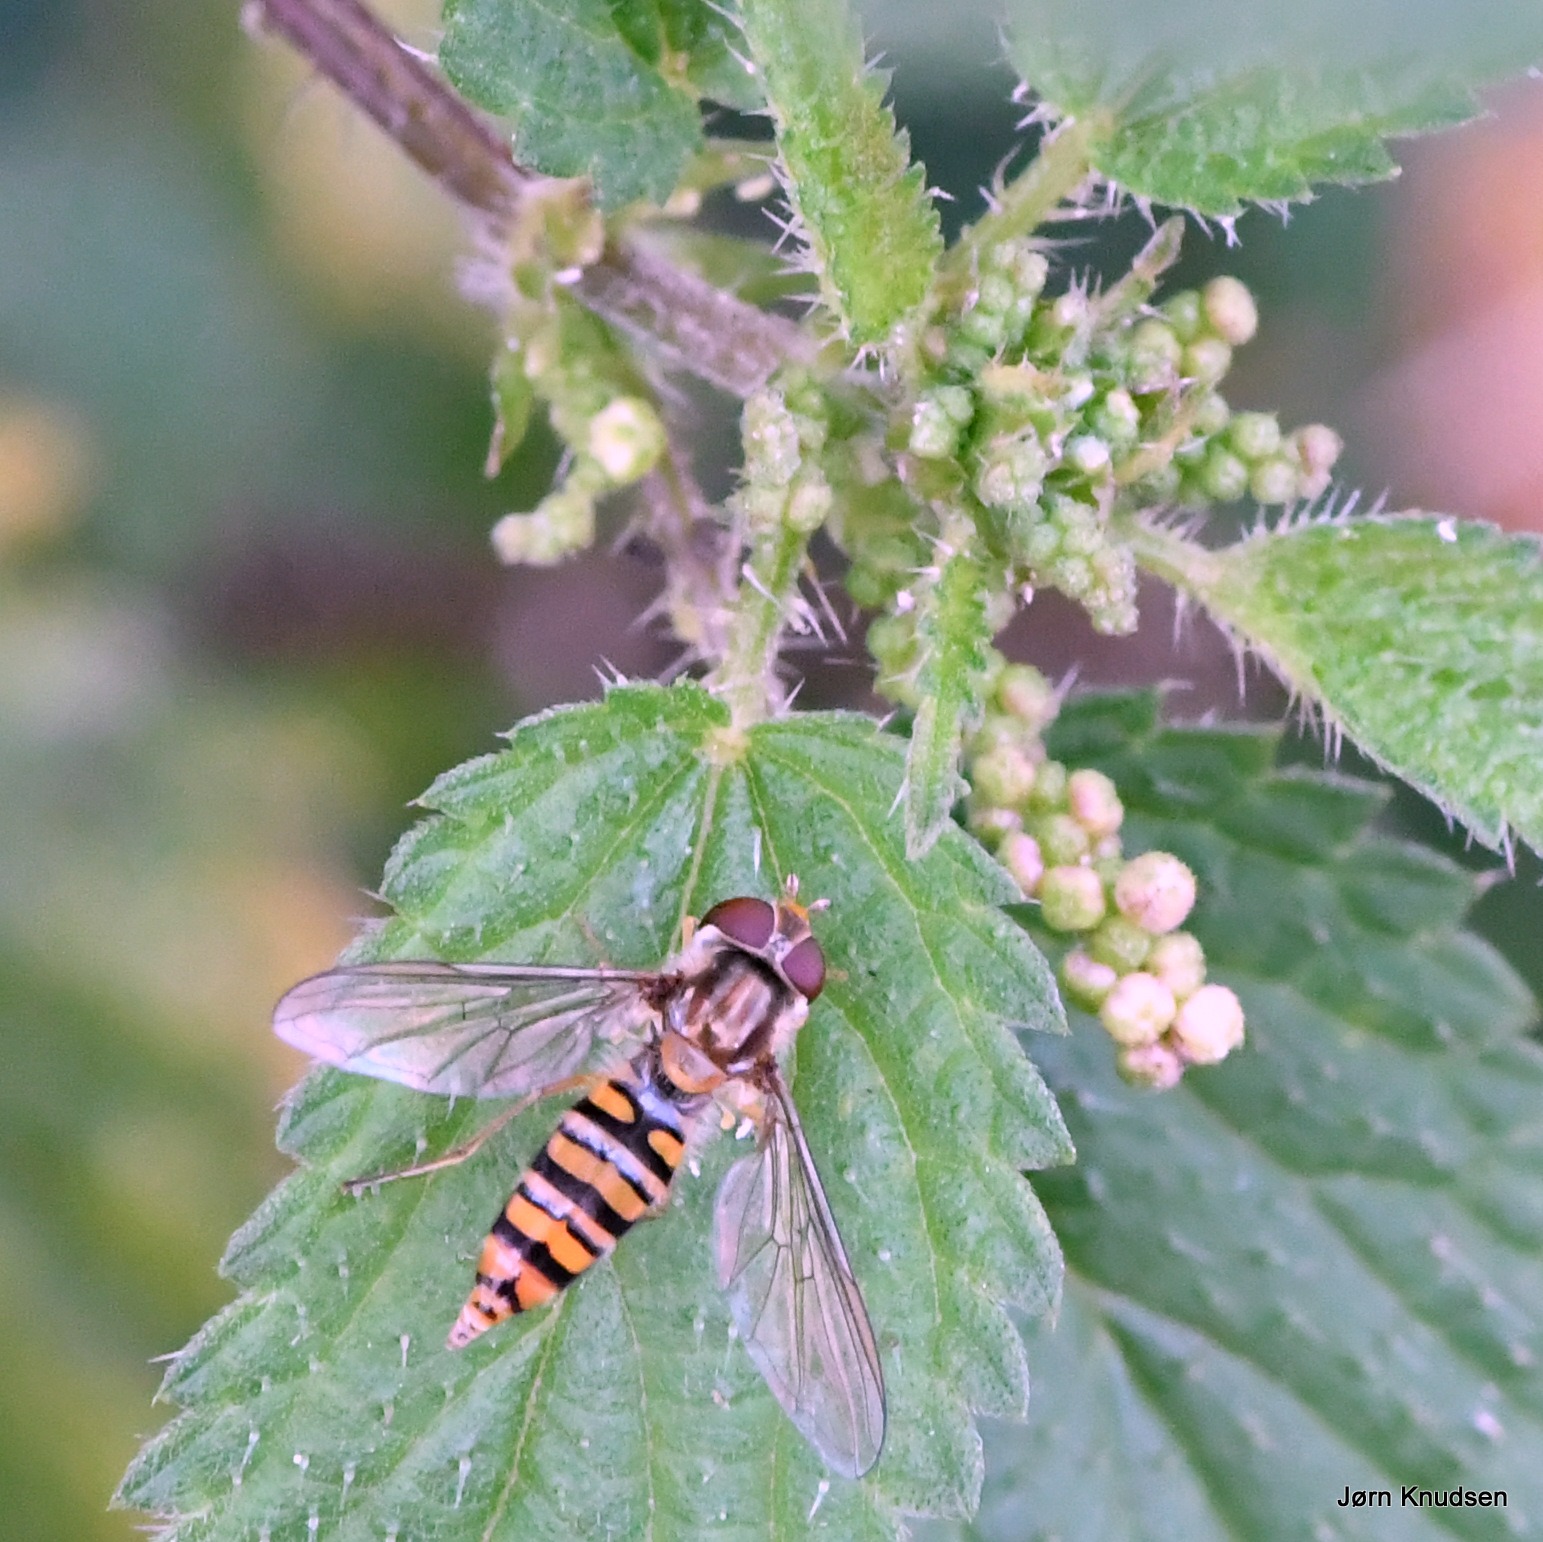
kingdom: Animalia
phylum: Arthropoda
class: Insecta
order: Diptera
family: Syrphidae
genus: Episyrphus
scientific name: Episyrphus balteatus
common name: Dobbeltbåndet svirreflue
